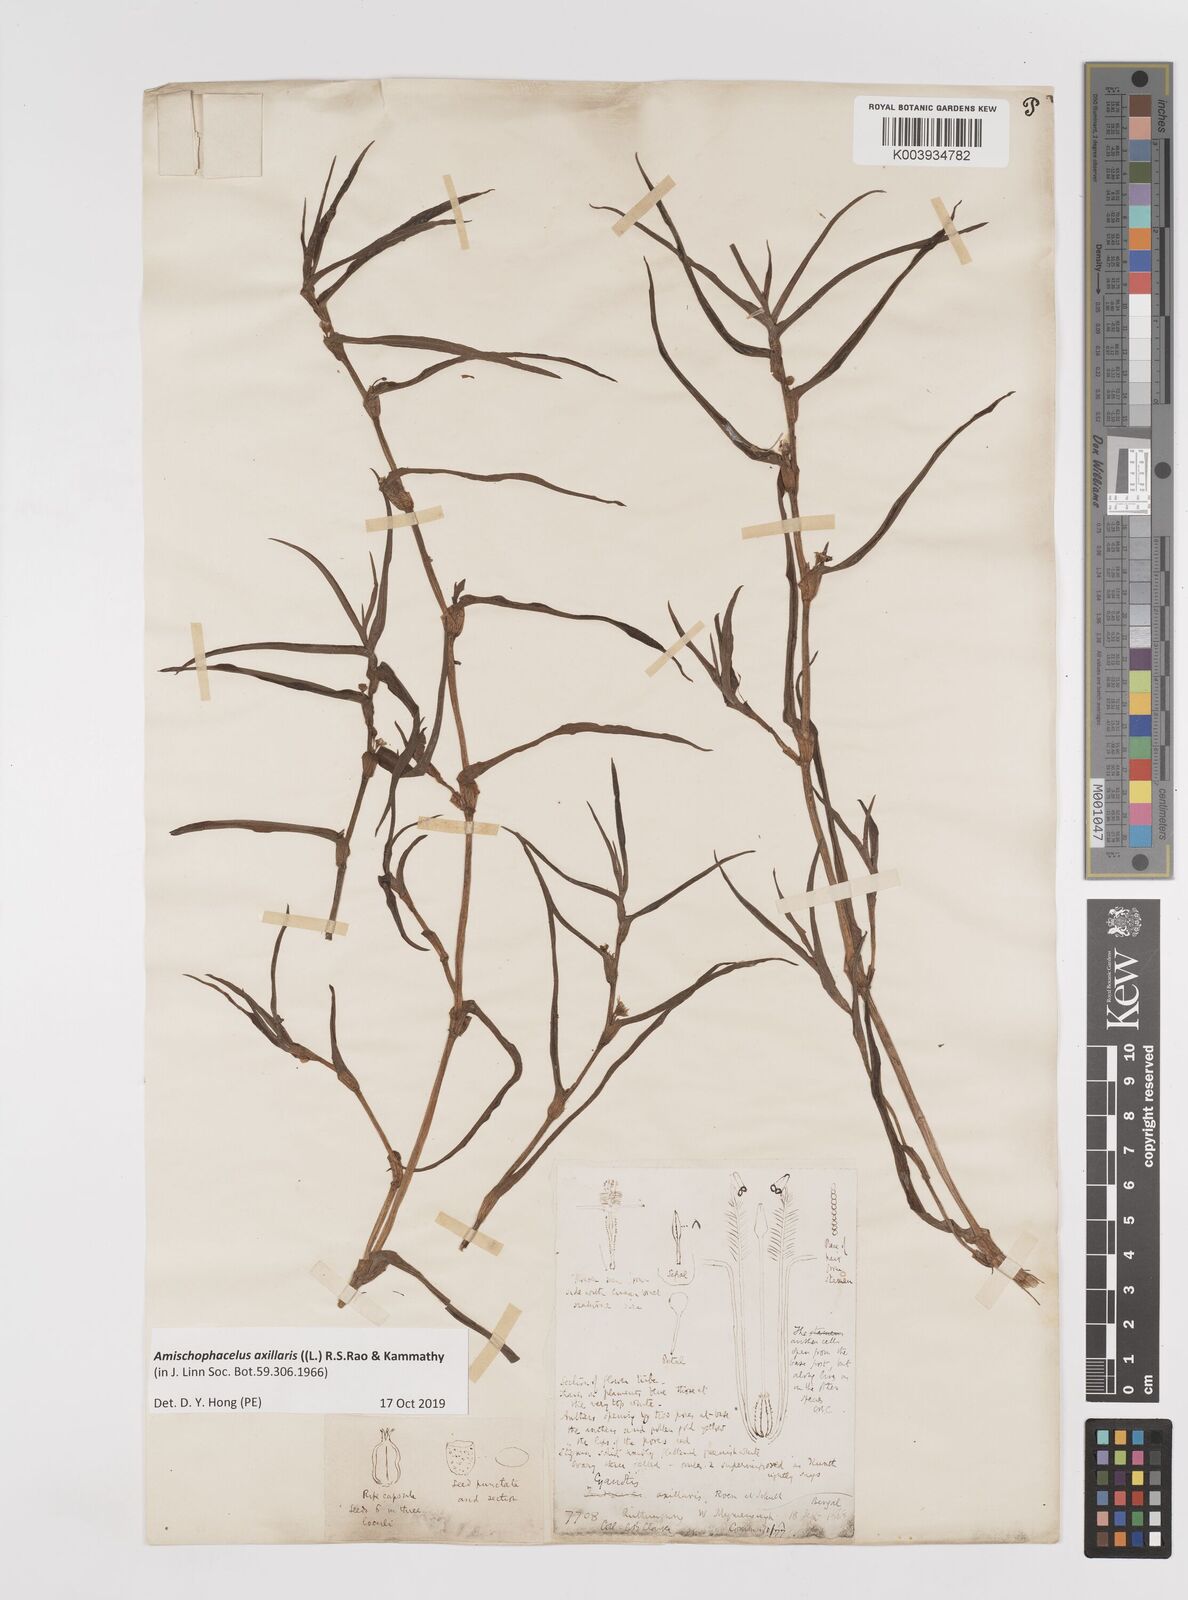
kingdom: Plantae
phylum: Tracheophyta
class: Liliopsida
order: Commelinales
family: Commelinaceae
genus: Cyanotis
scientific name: Cyanotis axillaris
